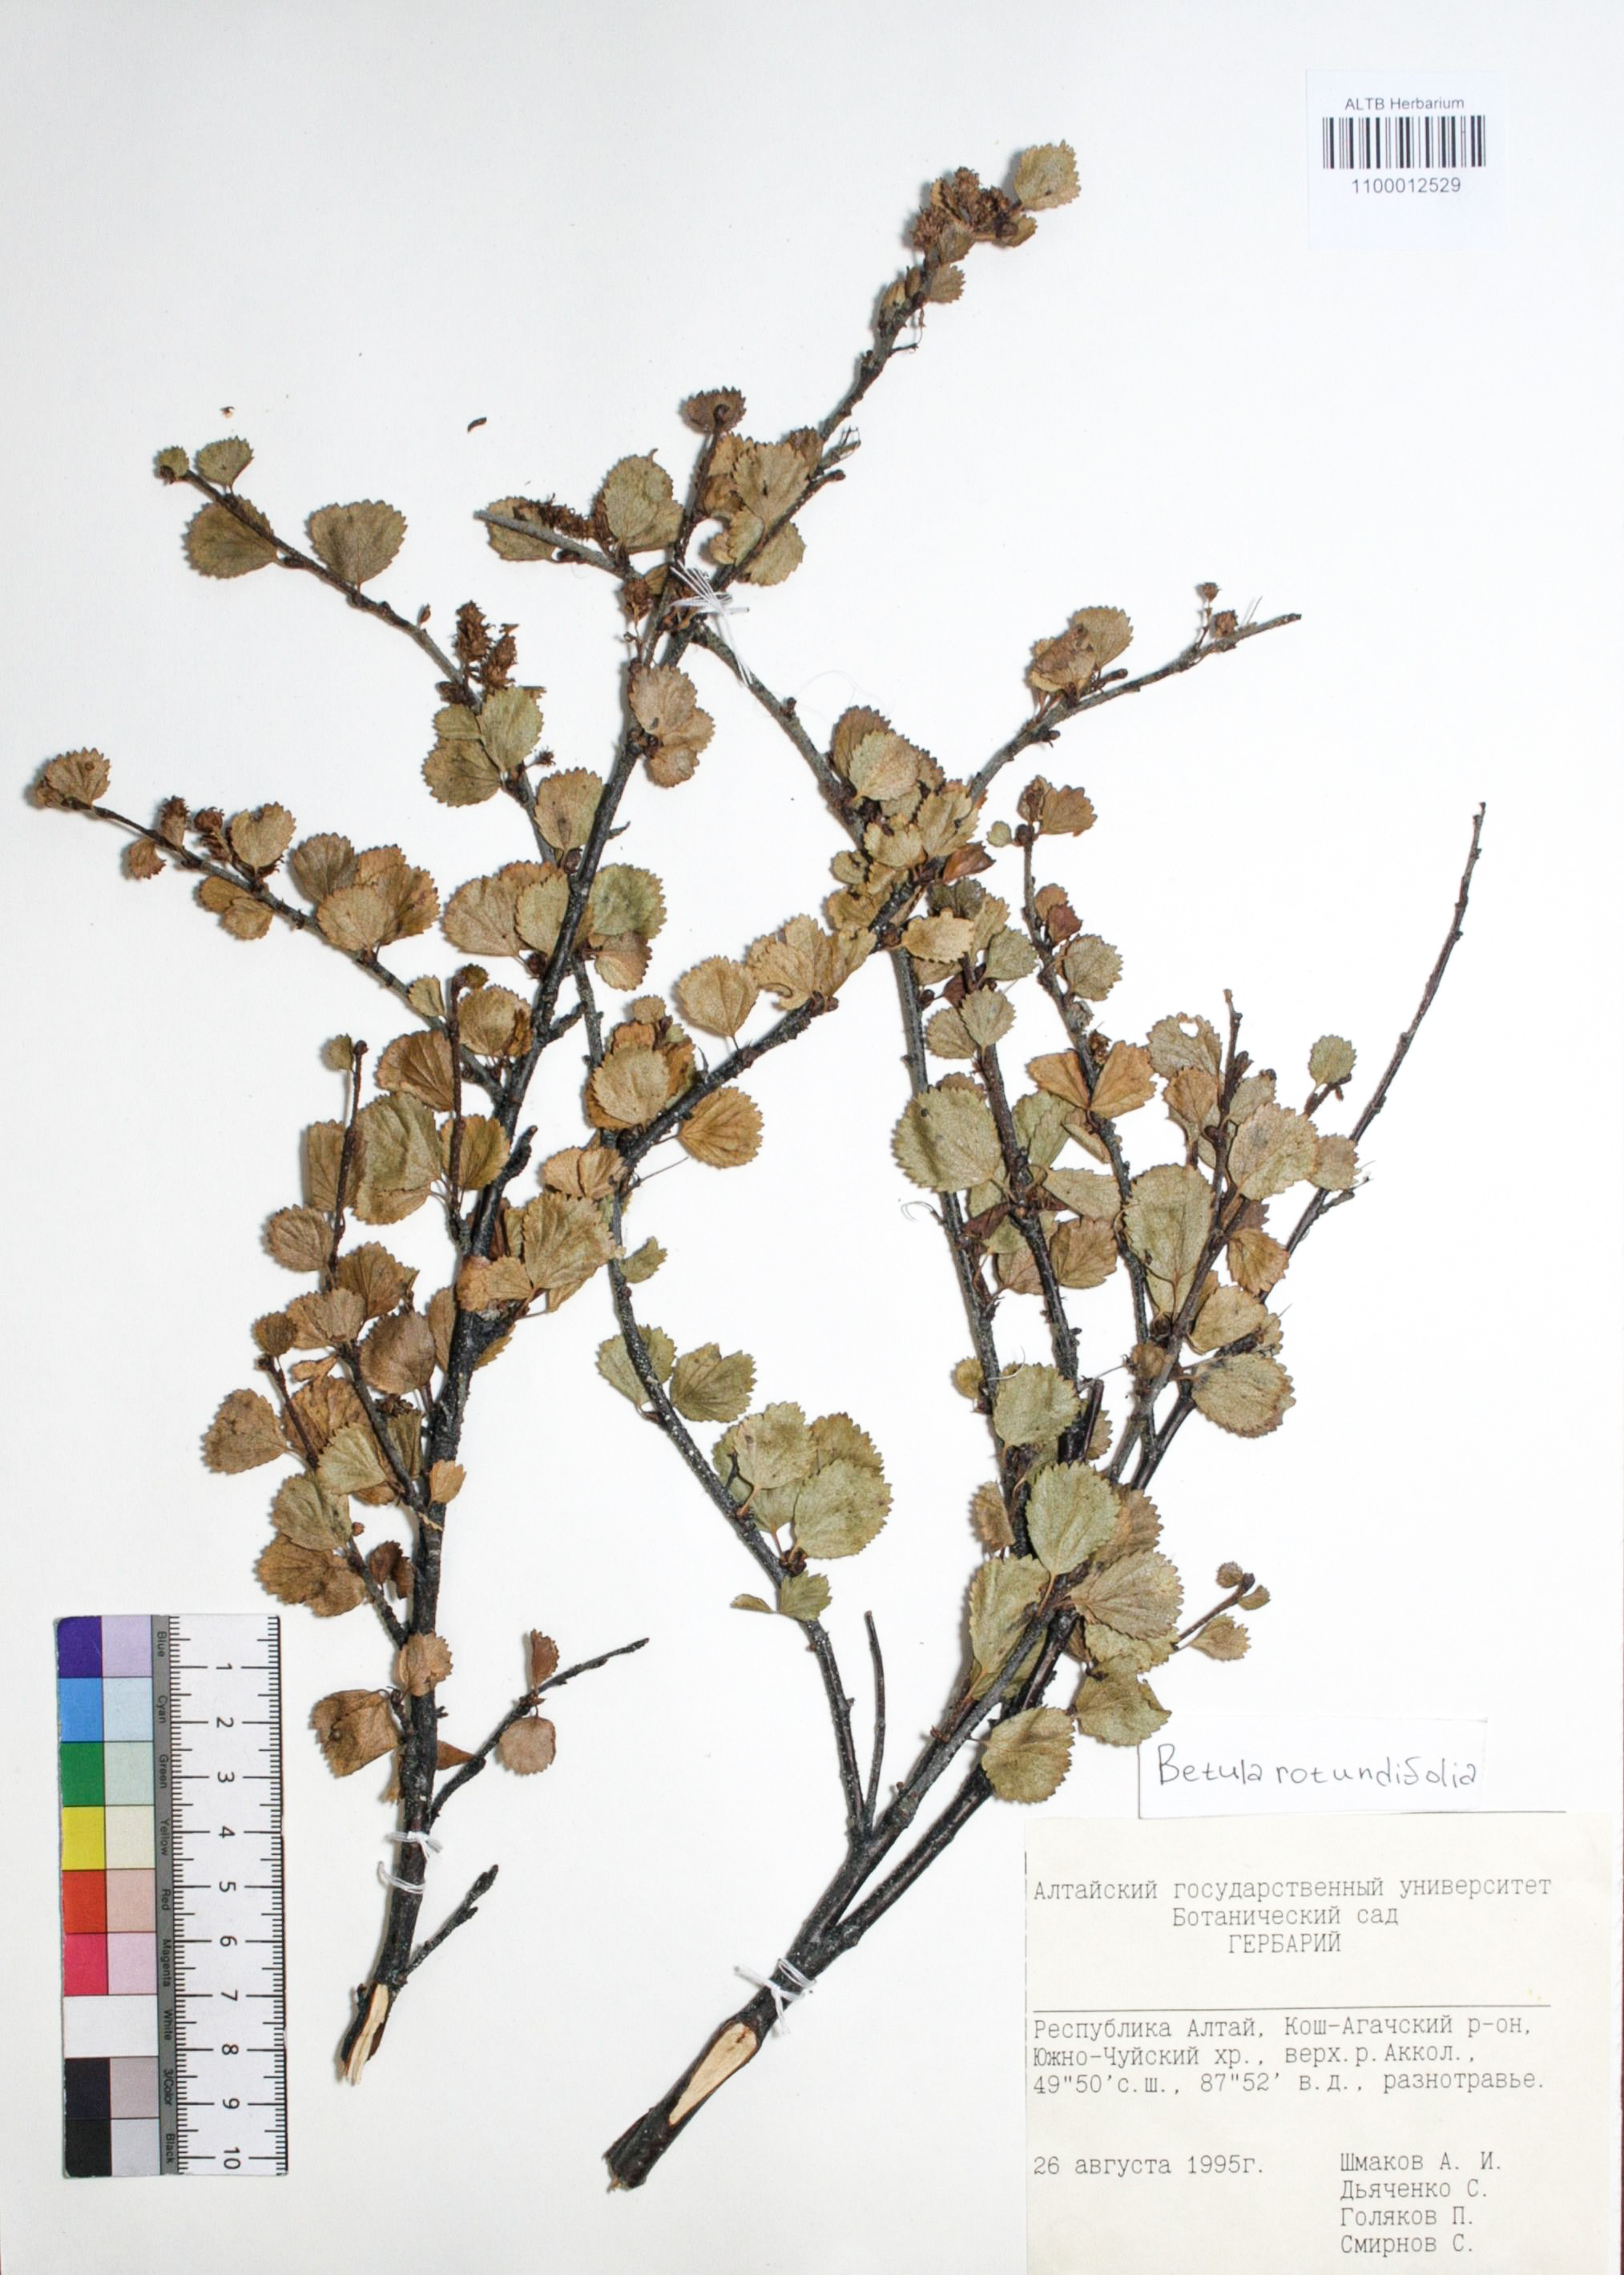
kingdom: Plantae
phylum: Tracheophyta
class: Magnoliopsida
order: Fagales
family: Betulaceae
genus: Betula
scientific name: Betula glandulosa
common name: Dwarf birch
